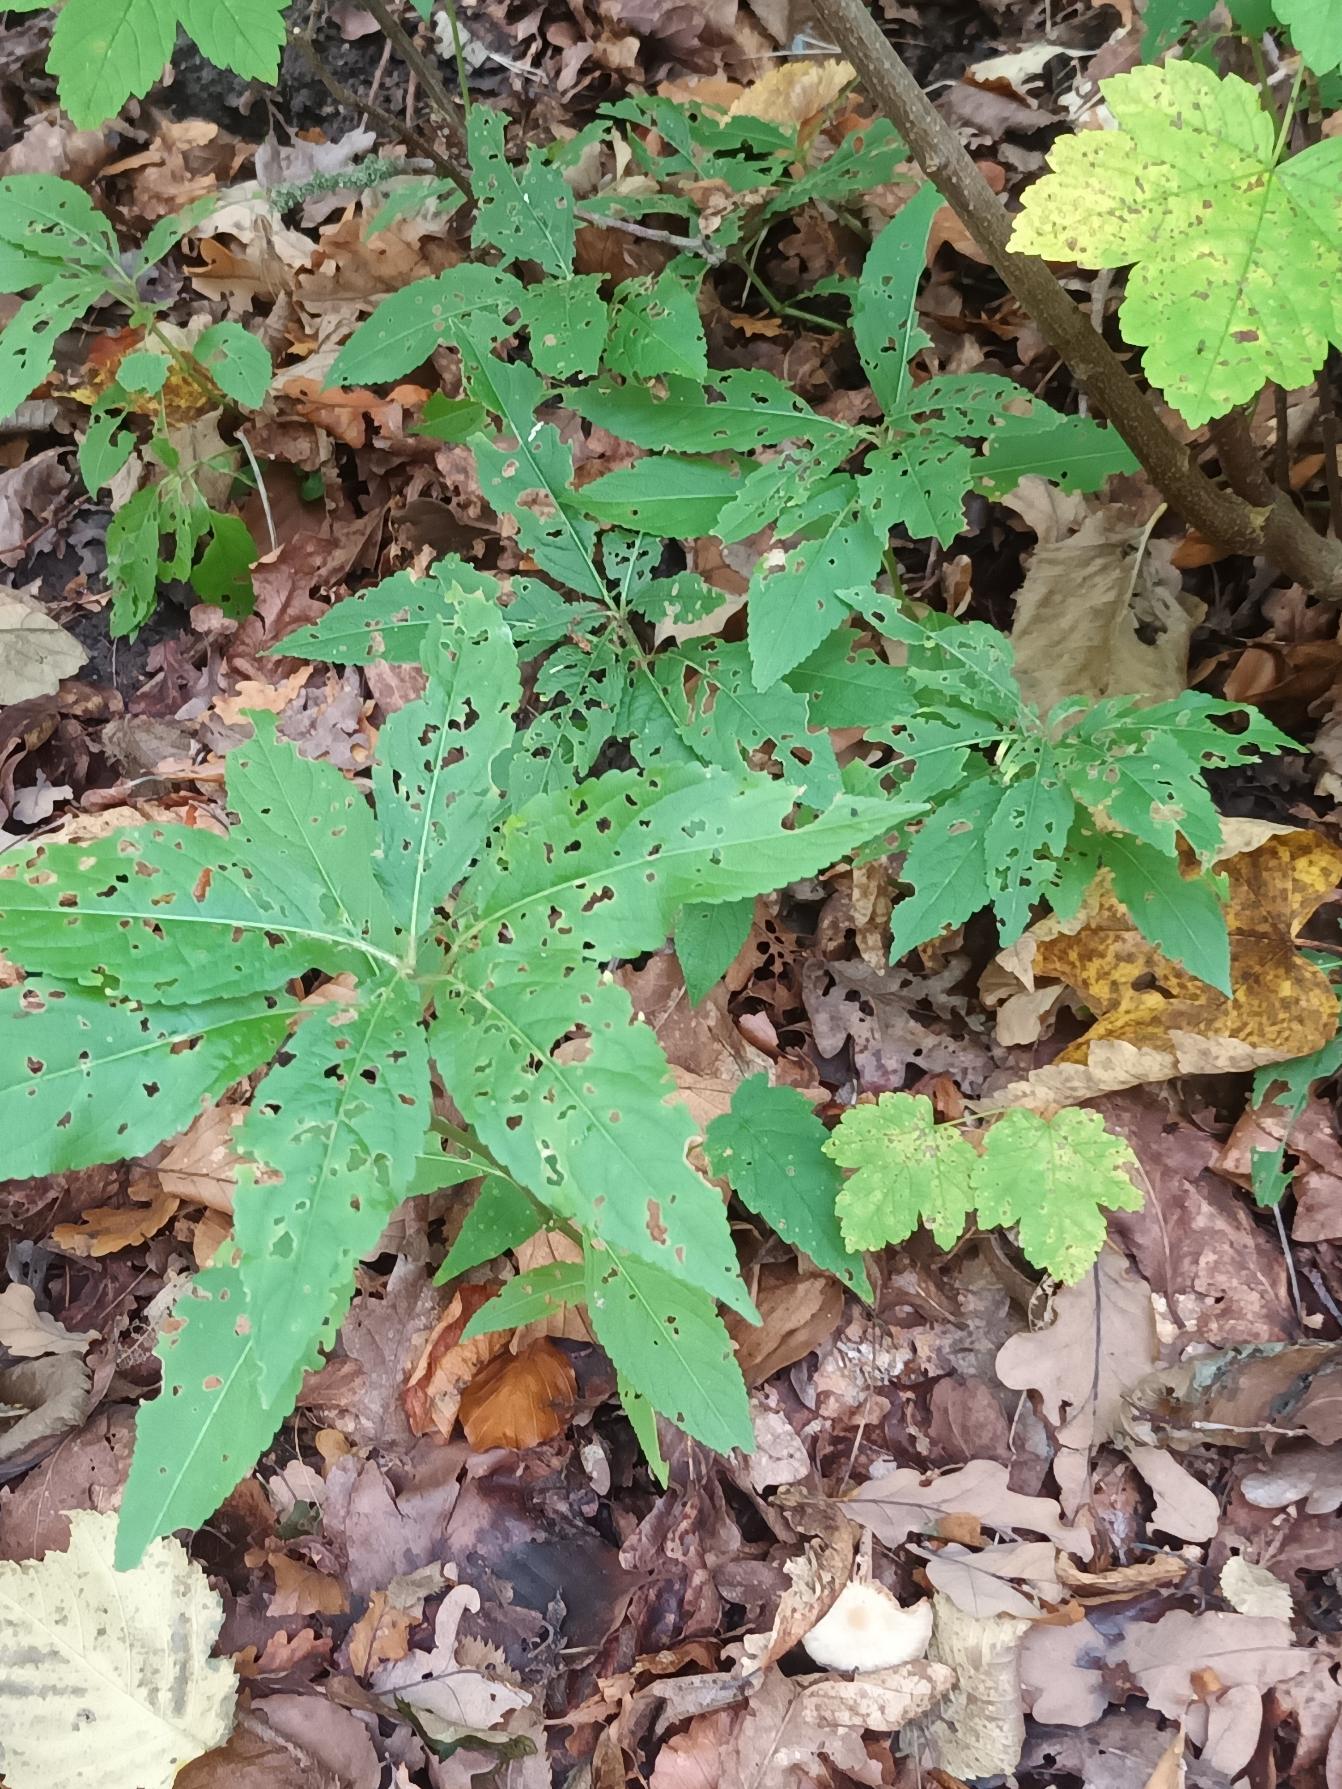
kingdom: Plantae
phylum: Tracheophyta
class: Magnoliopsida
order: Malpighiales
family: Euphorbiaceae
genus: Mercurialis
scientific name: Mercurialis perennis
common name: Almindelig bingelurt
